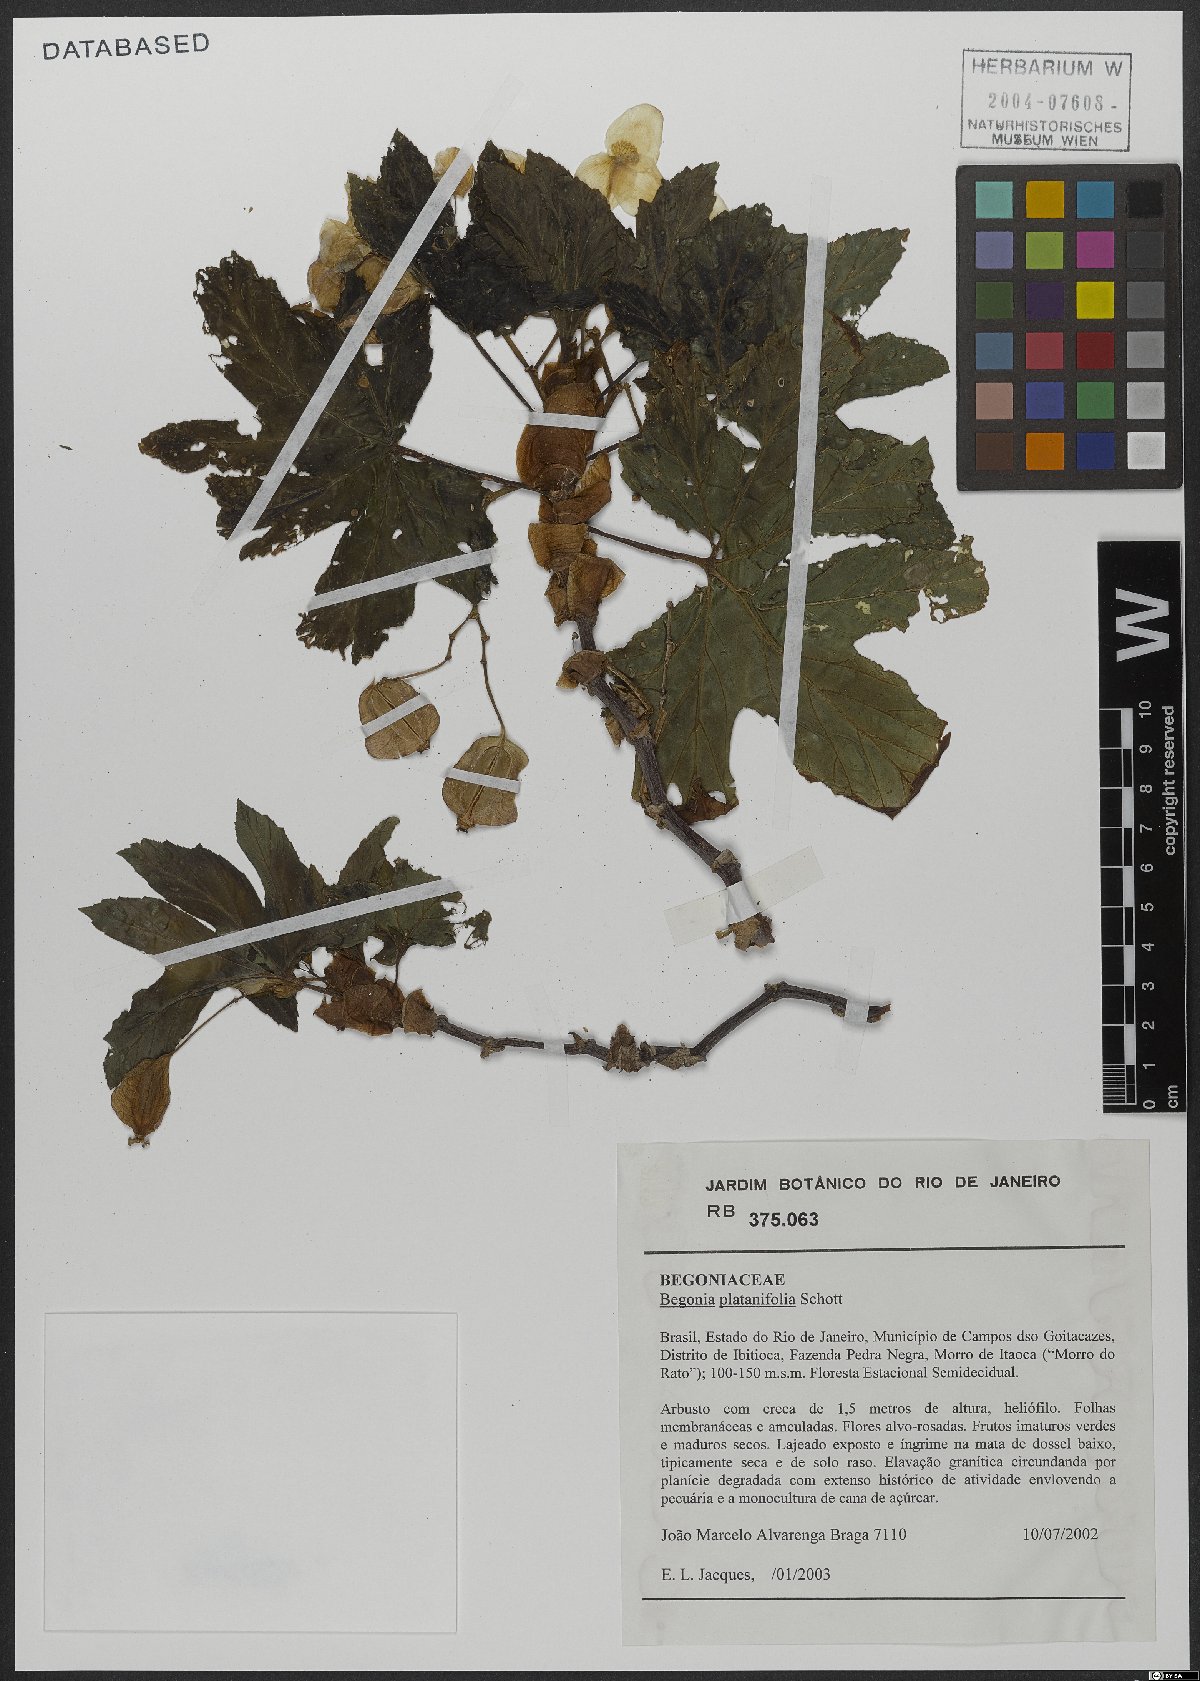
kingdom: Plantae
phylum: Tracheophyta
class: Magnoliopsida
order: Cucurbitales
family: Begoniaceae
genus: Begonia
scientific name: Begonia platanifolia
